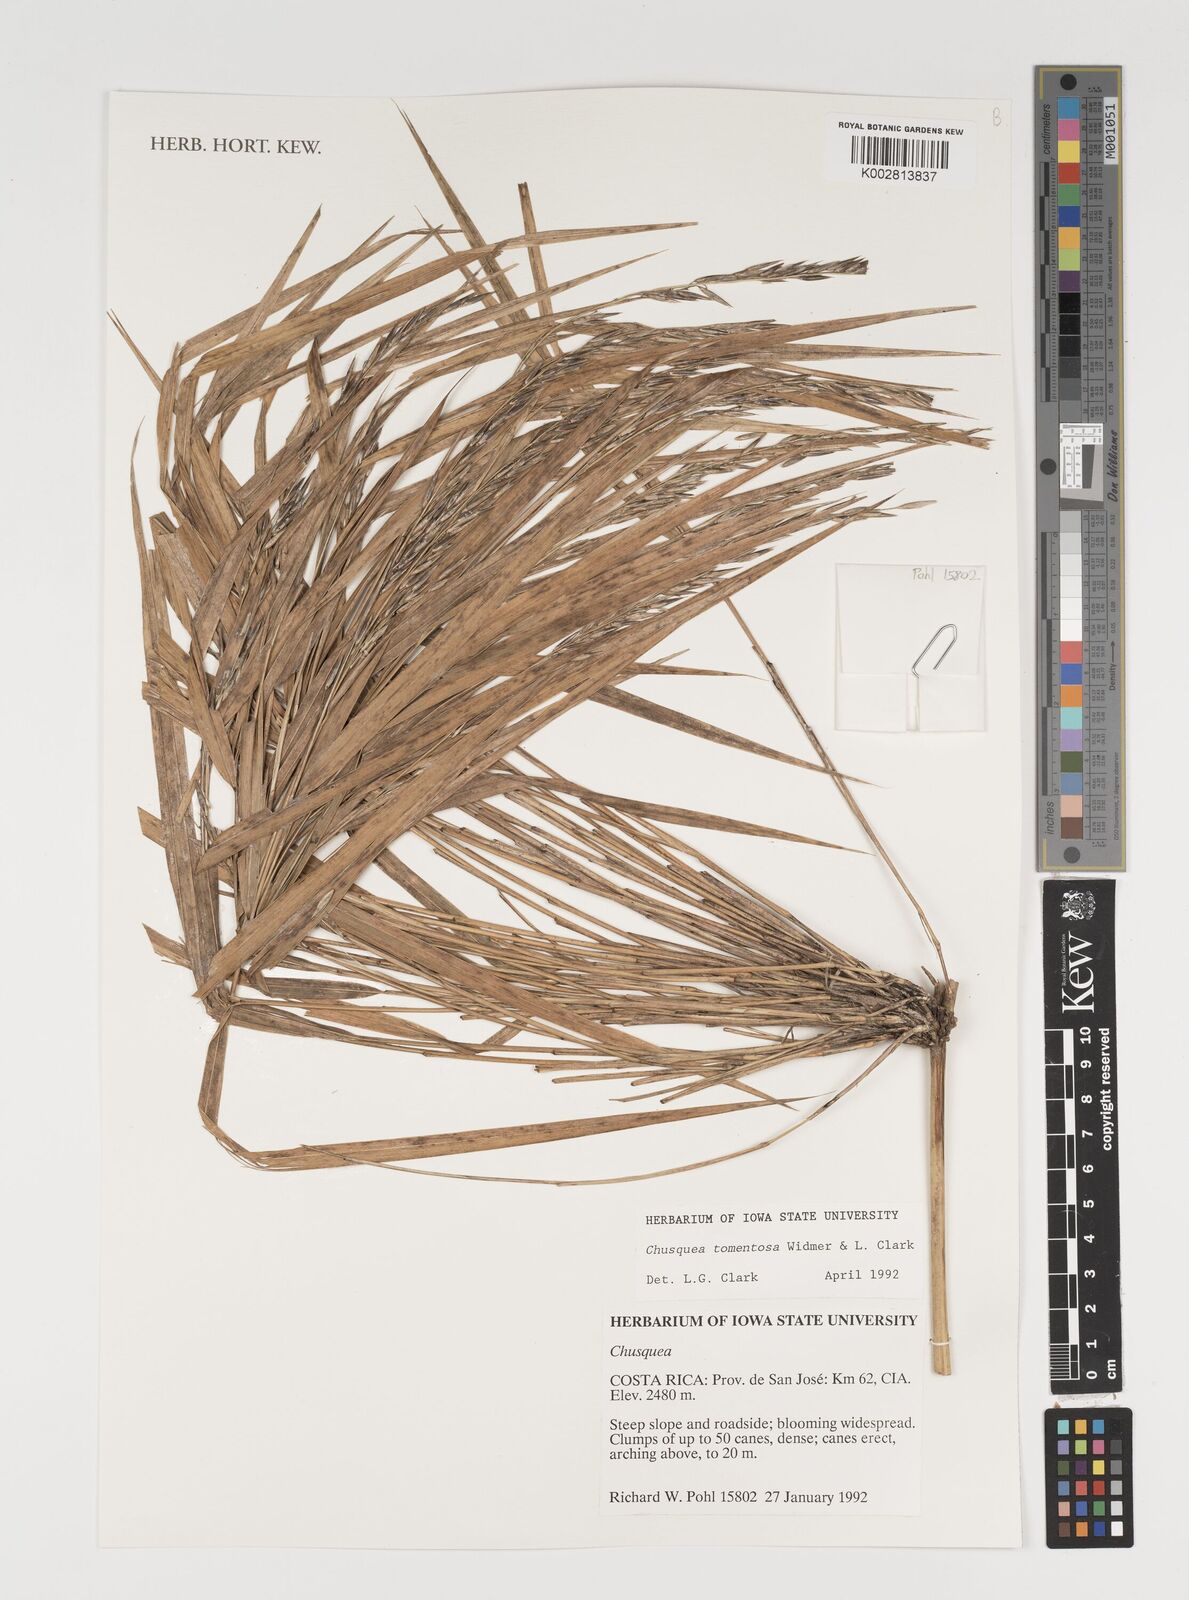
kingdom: Plantae
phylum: Tracheophyta
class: Liliopsida
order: Poales
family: Poaceae
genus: Chusquea
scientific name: Chusquea tomentosa
